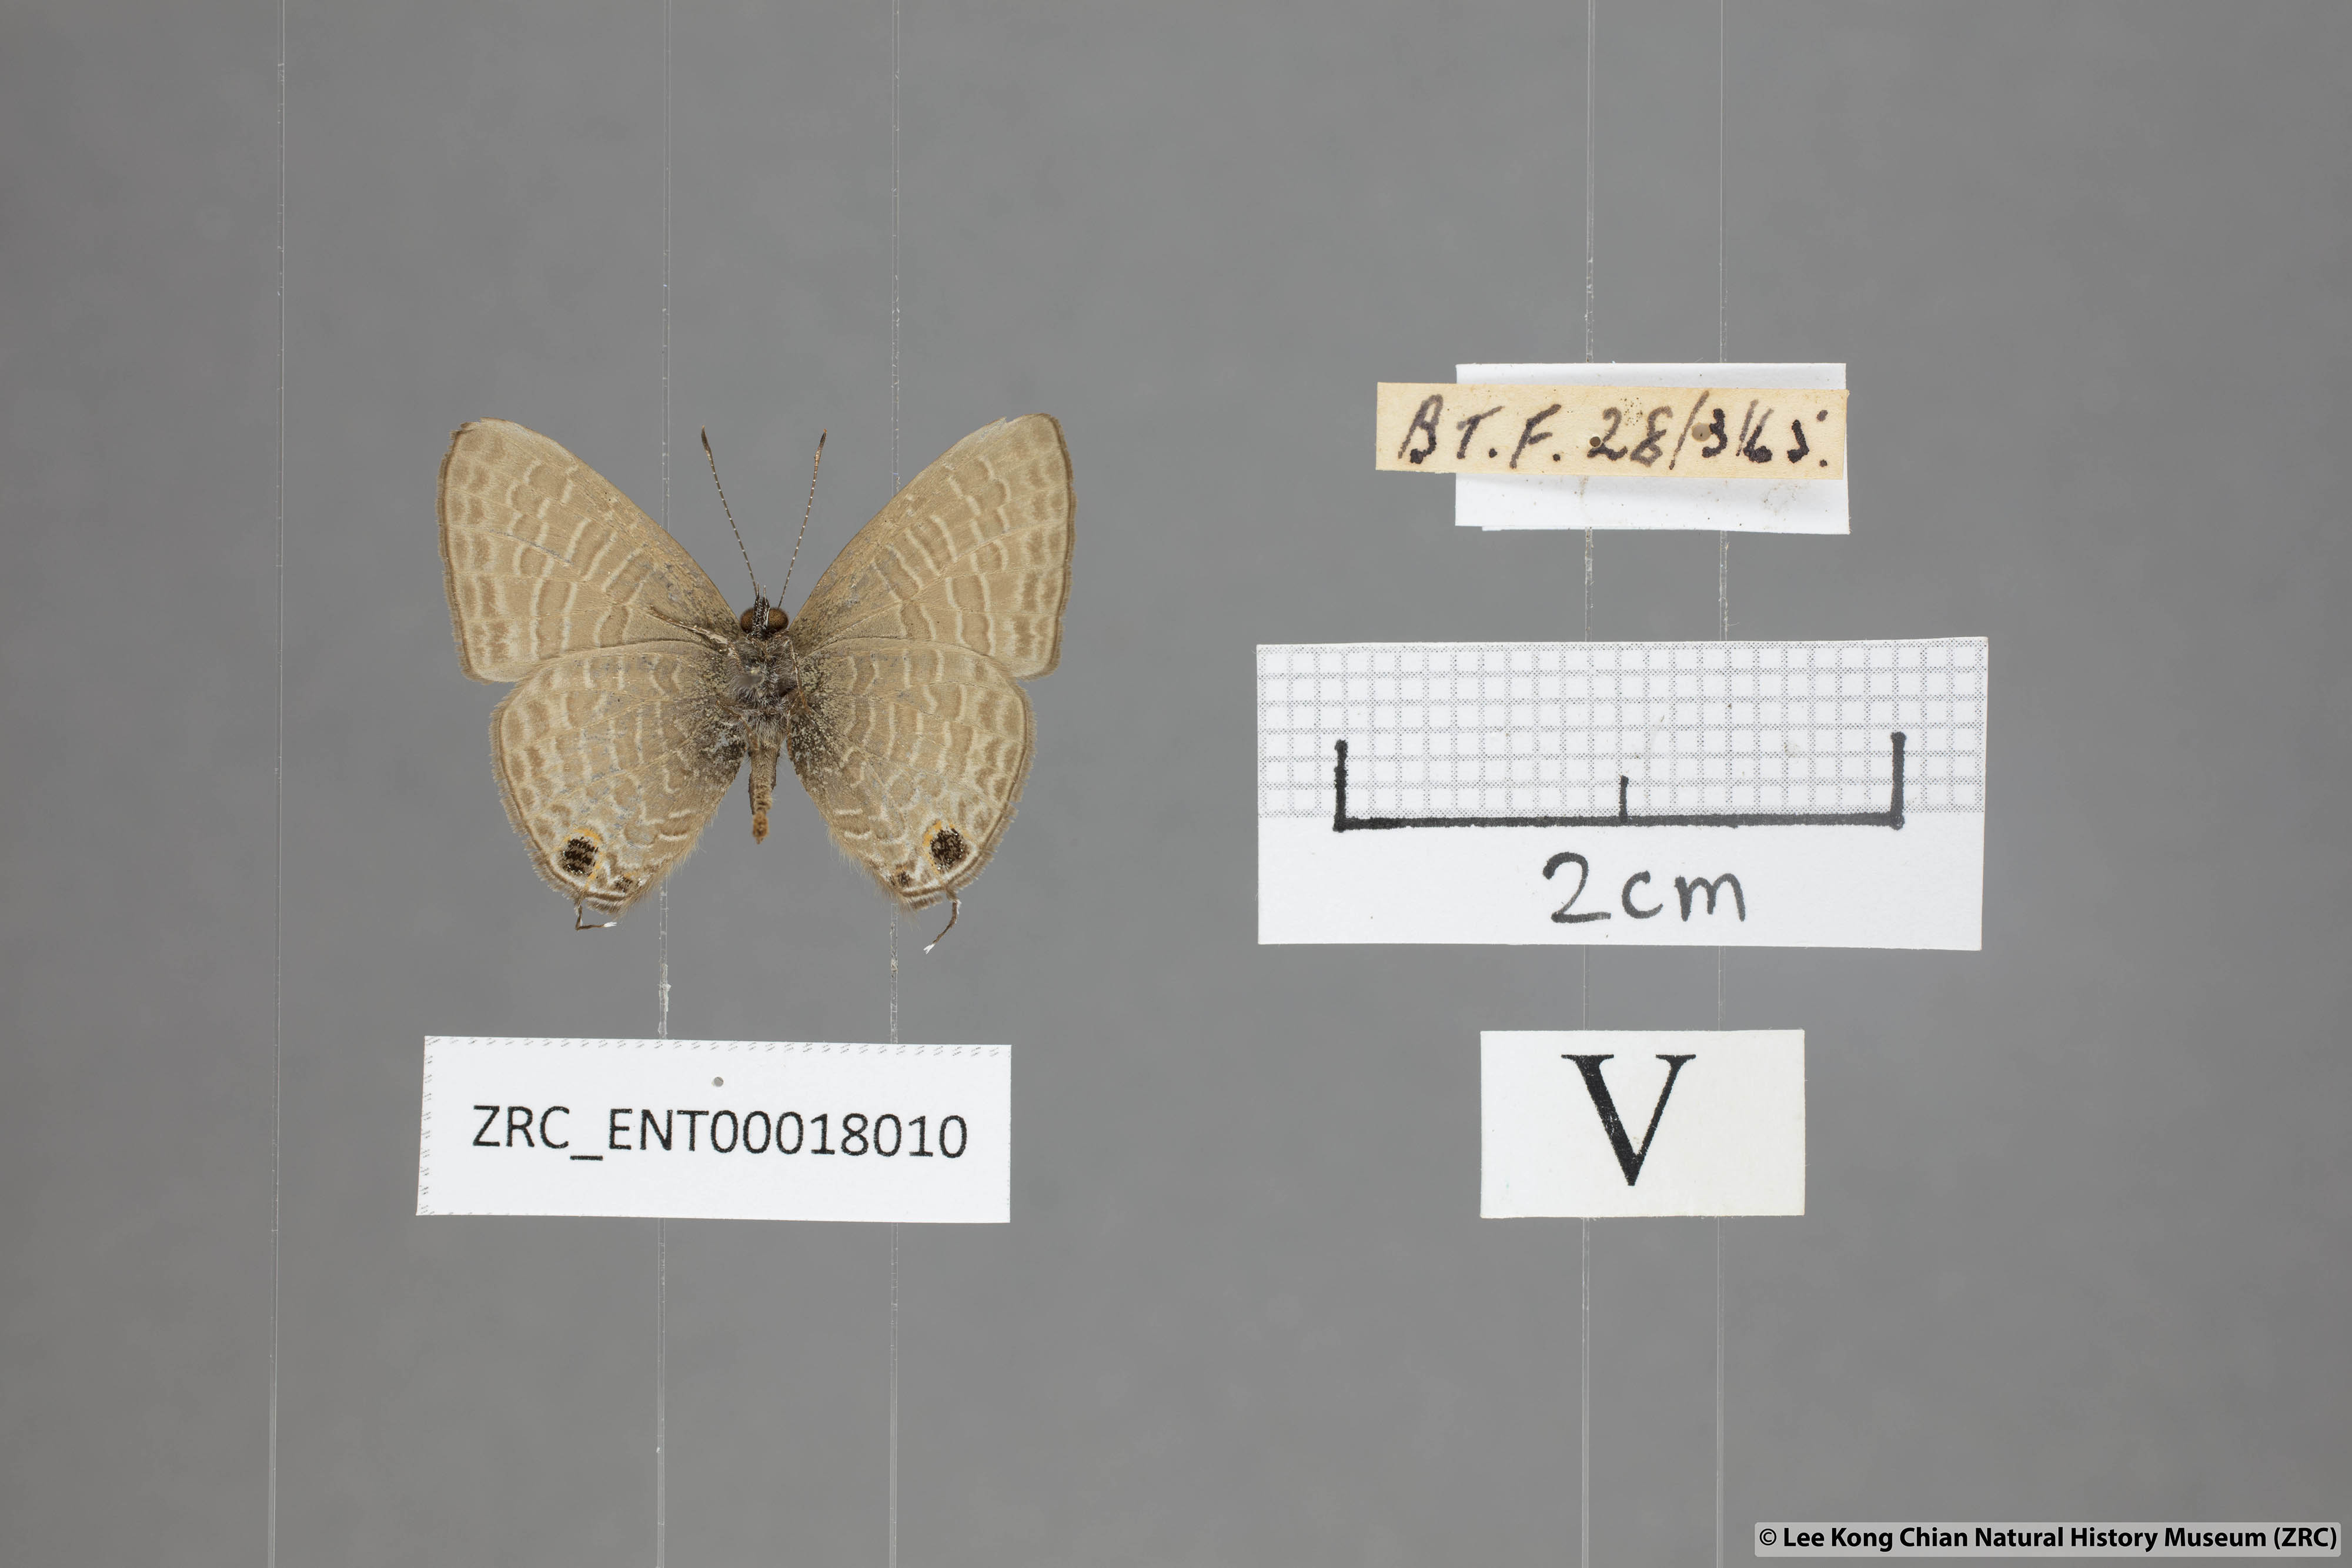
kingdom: Animalia
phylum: Arthropoda
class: Insecta
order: Lepidoptera
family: Lycaenidae
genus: Ionolyce
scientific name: Ionolyce helicon
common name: Pointed line blue
